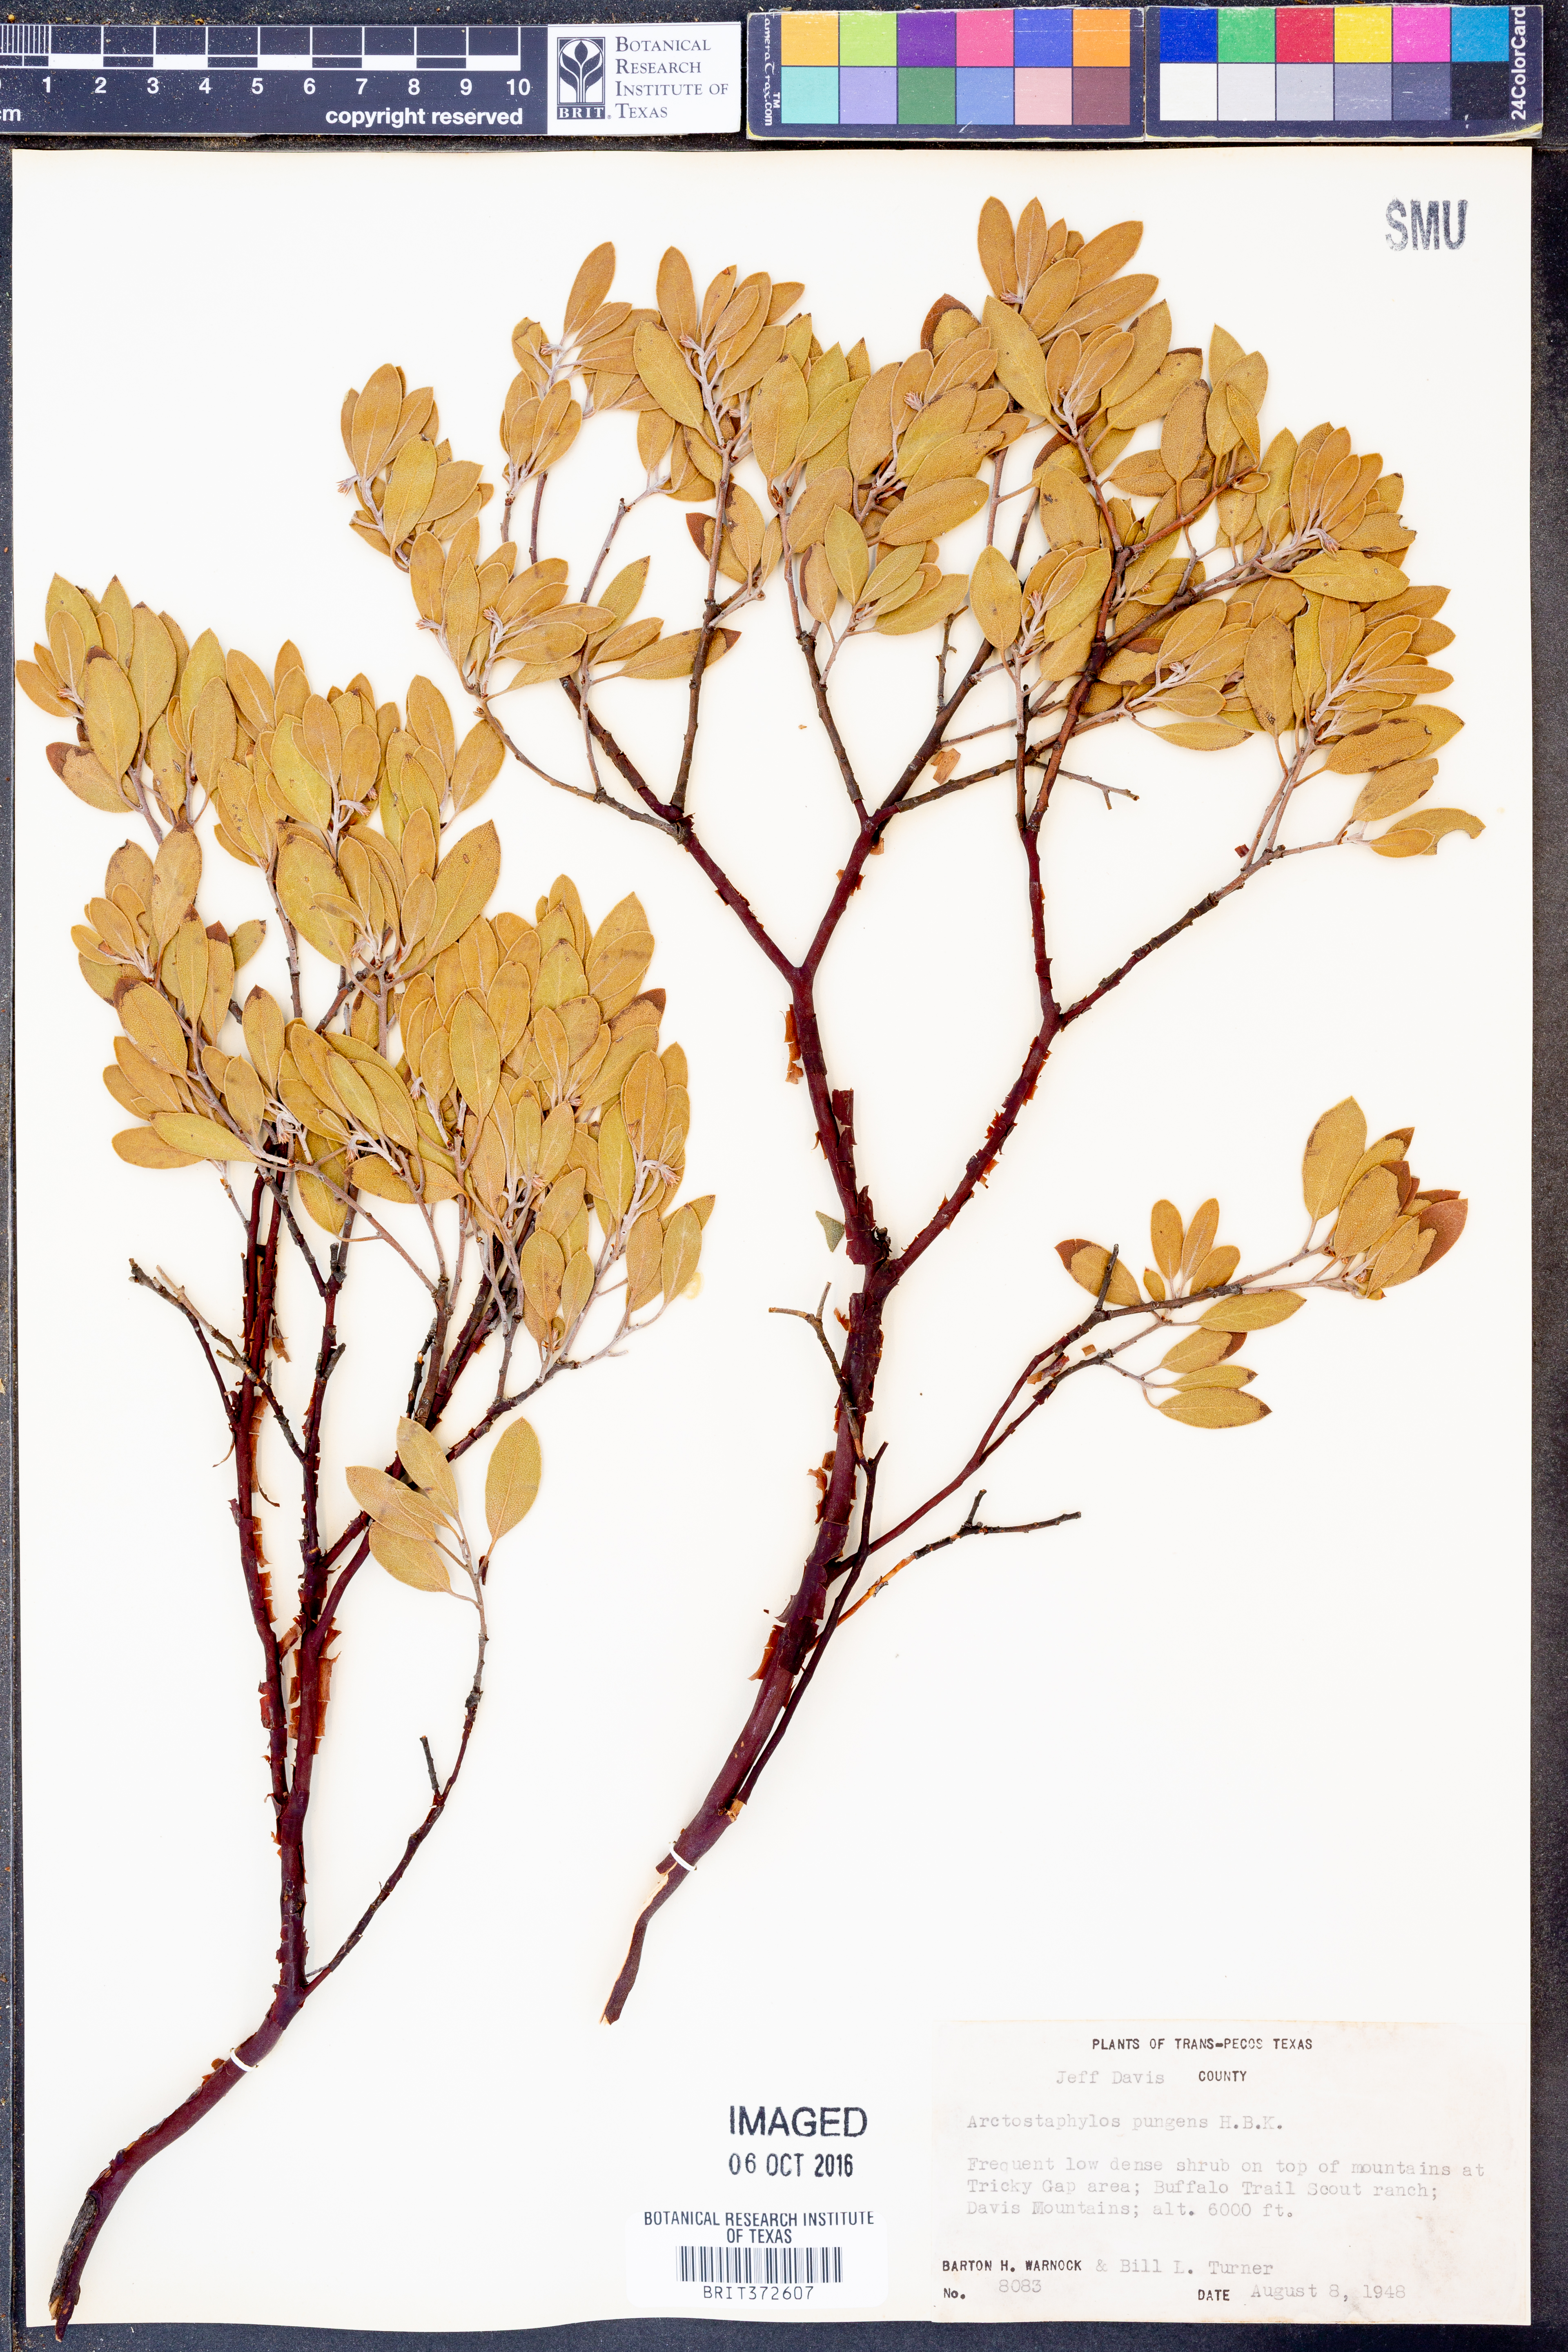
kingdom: Plantae
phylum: Tracheophyta
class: Magnoliopsida
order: Ericales
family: Ericaceae
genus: Arctostaphylos
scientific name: Arctostaphylos pungens
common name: Mexican manzanita
